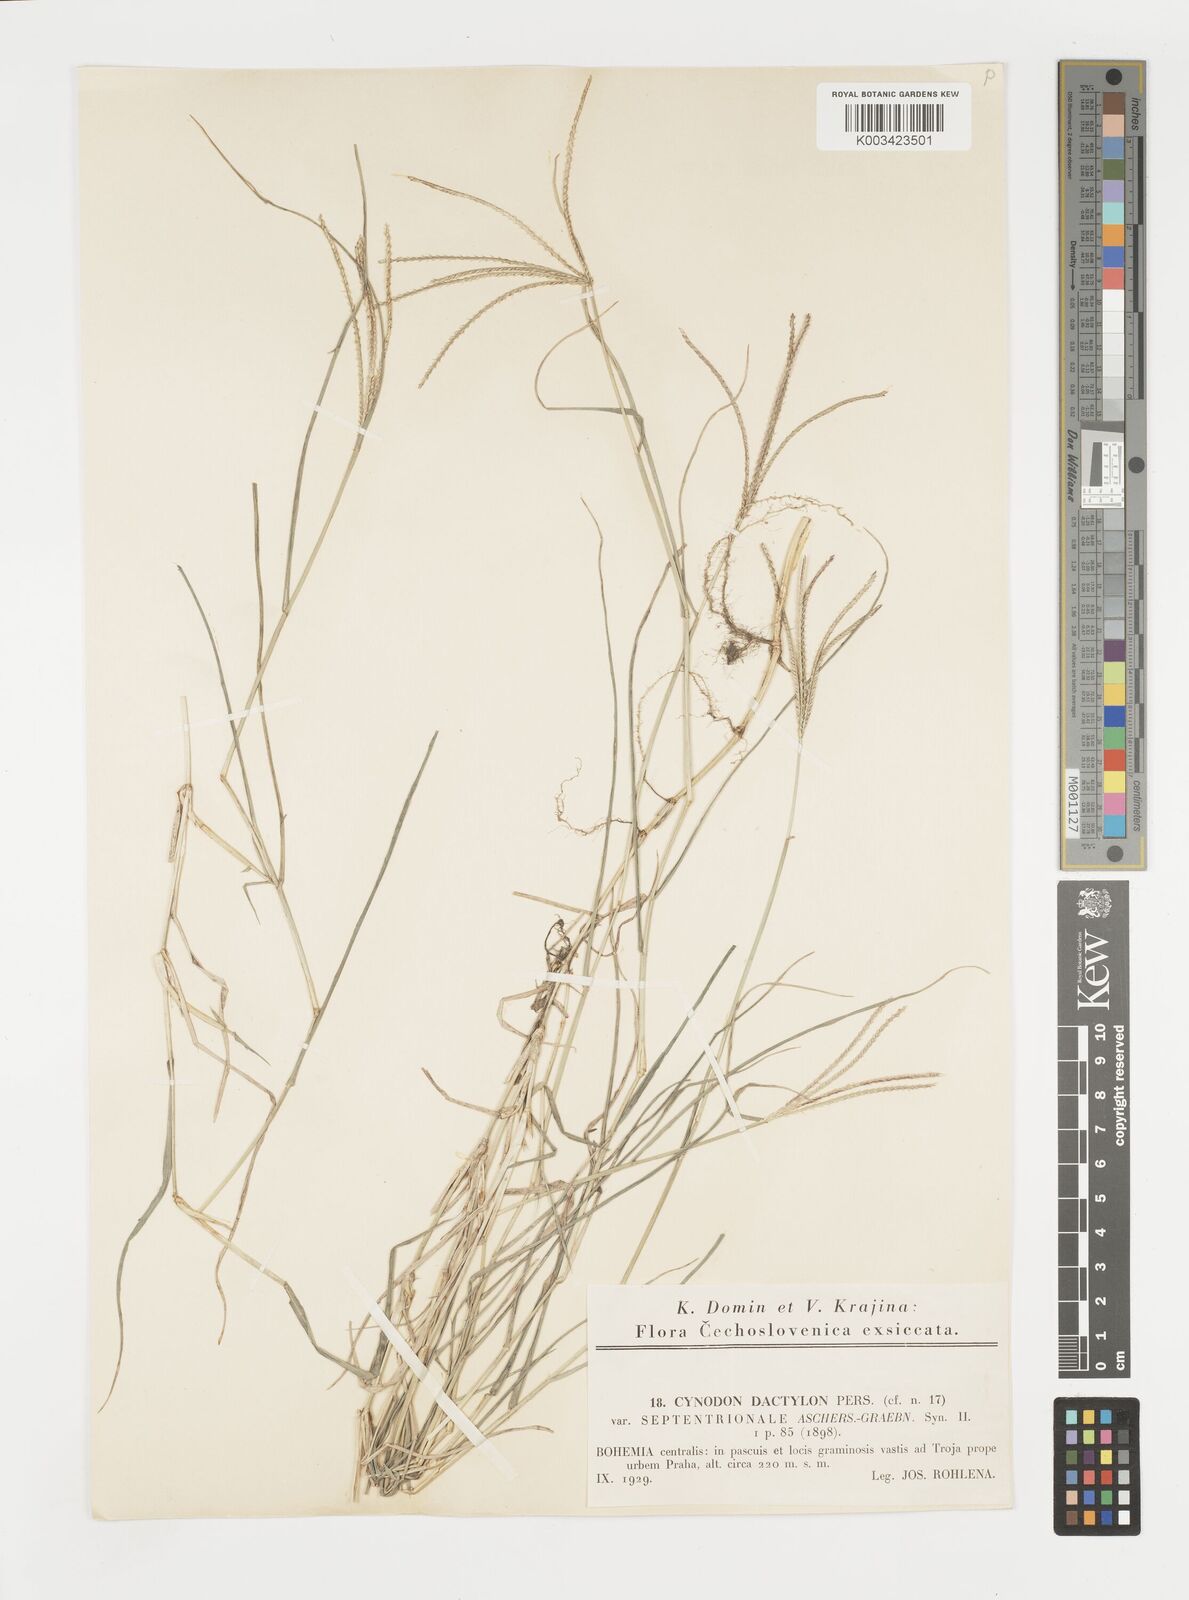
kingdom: Plantae
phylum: Tracheophyta
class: Liliopsida
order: Poales
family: Poaceae
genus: Cynodon
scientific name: Cynodon dactylon
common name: Bermuda grass
